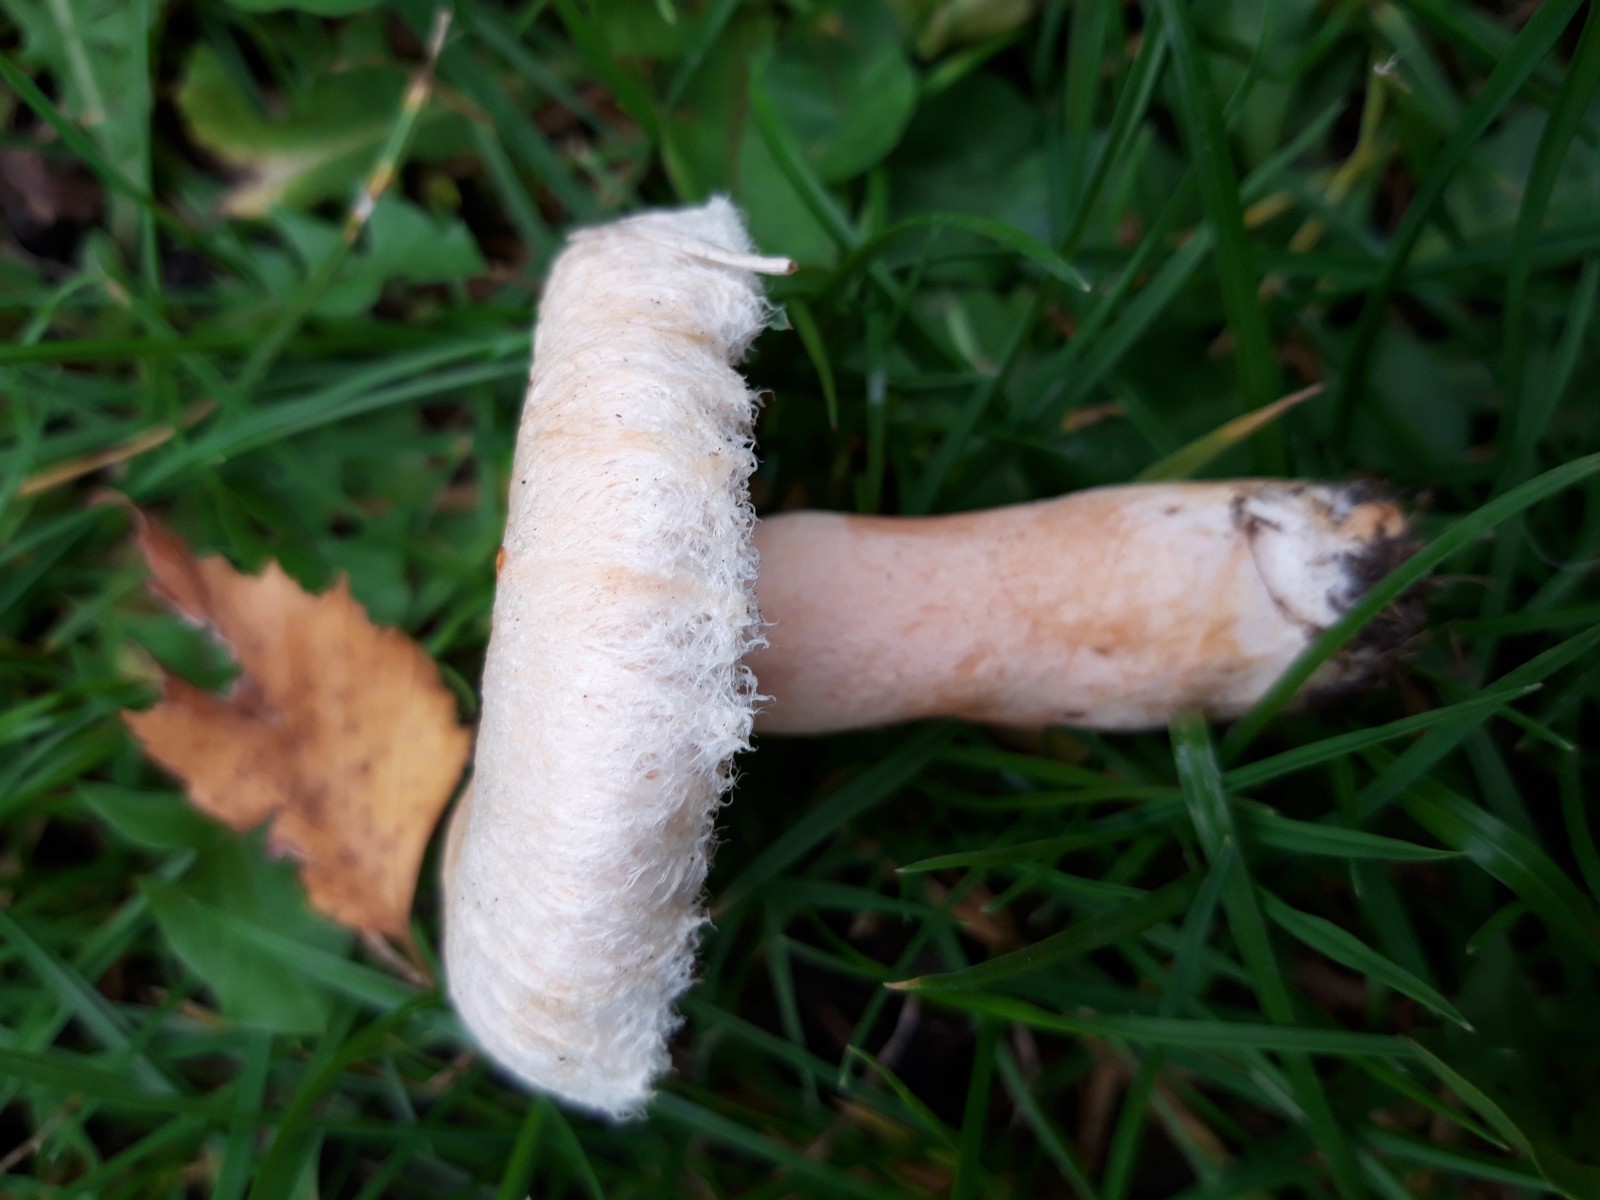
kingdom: Fungi
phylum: Basidiomycota
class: Agaricomycetes
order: Russulales
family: Russulaceae
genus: Lactarius
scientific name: Lactarius torminosus
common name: skægget mælkehat
